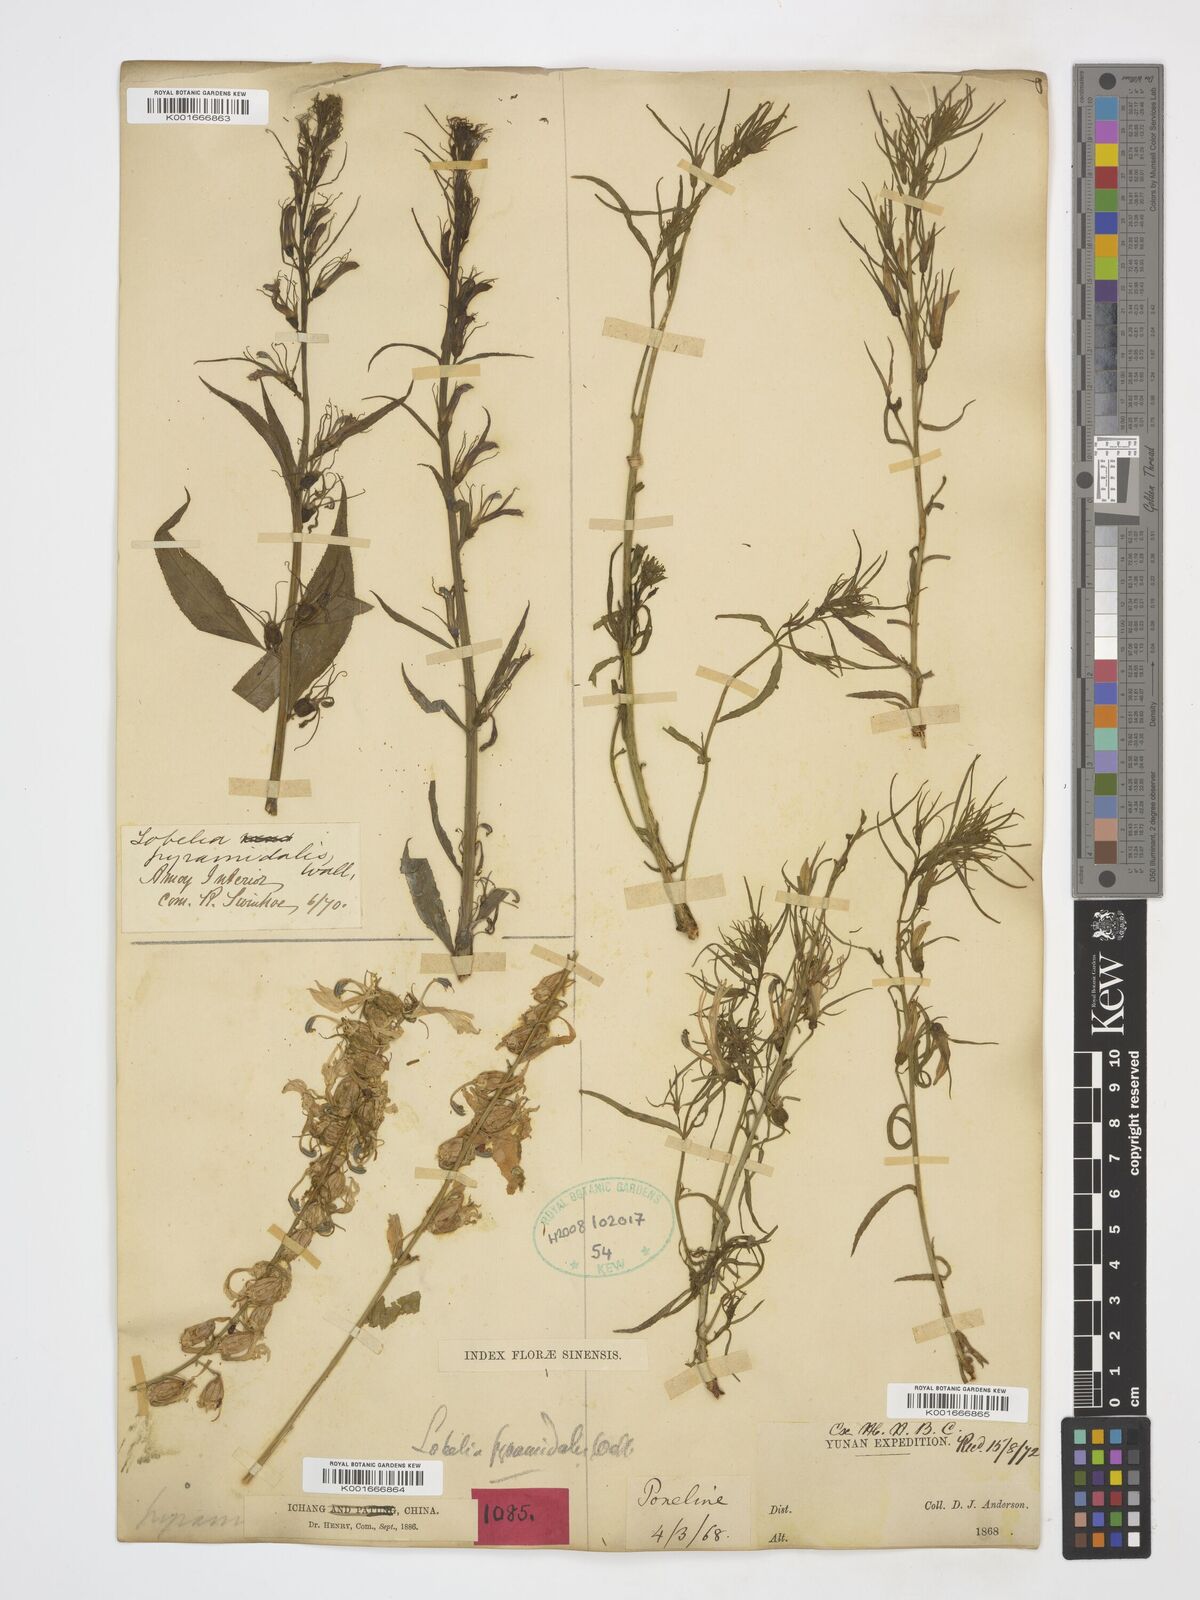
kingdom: Plantae
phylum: Tracheophyta
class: Magnoliopsida
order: Asterales
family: Campanulaceae
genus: Lobelia
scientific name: Lobelia pyramidalis
